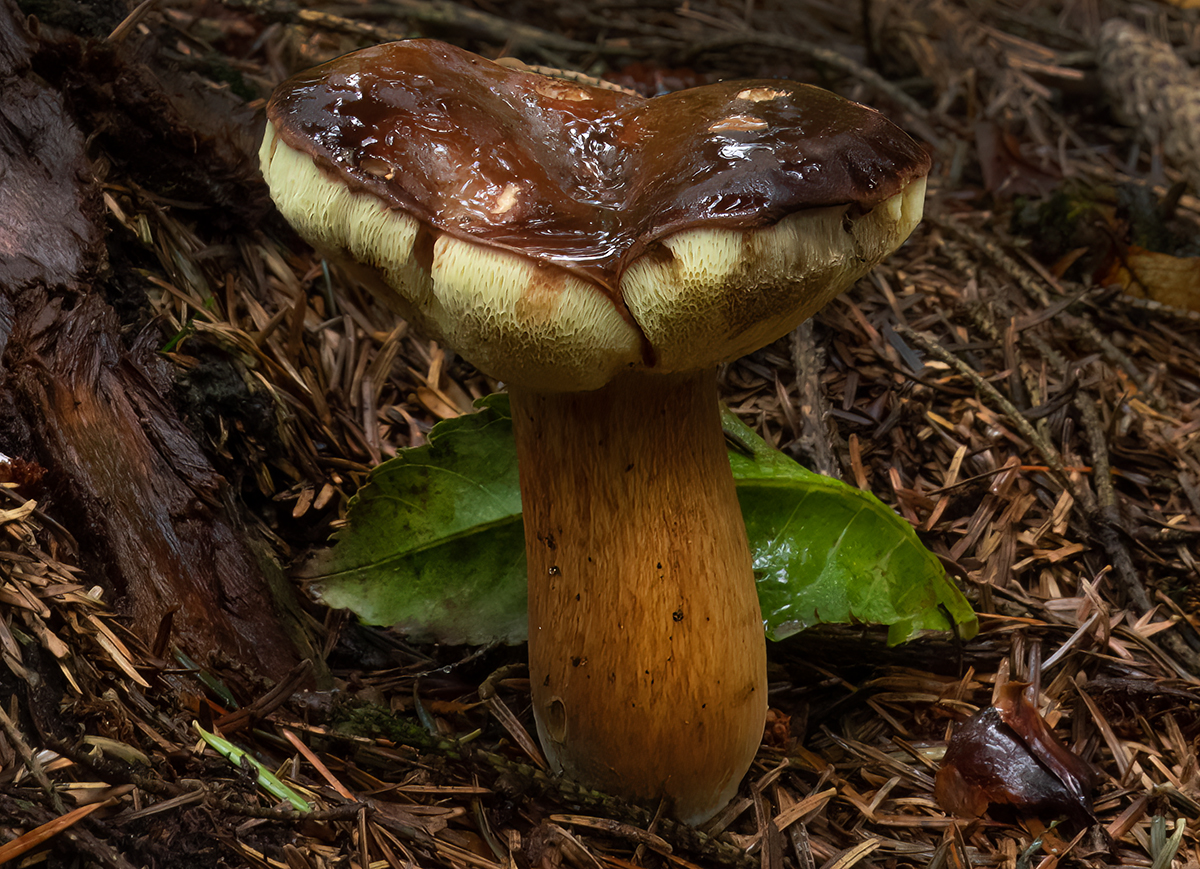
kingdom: Fungi
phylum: Basidiomycota
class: Agaricomycetes
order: Boletales
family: Boletaceae
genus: Imleria
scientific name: Imleria badia
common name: brunstokket rørhat
